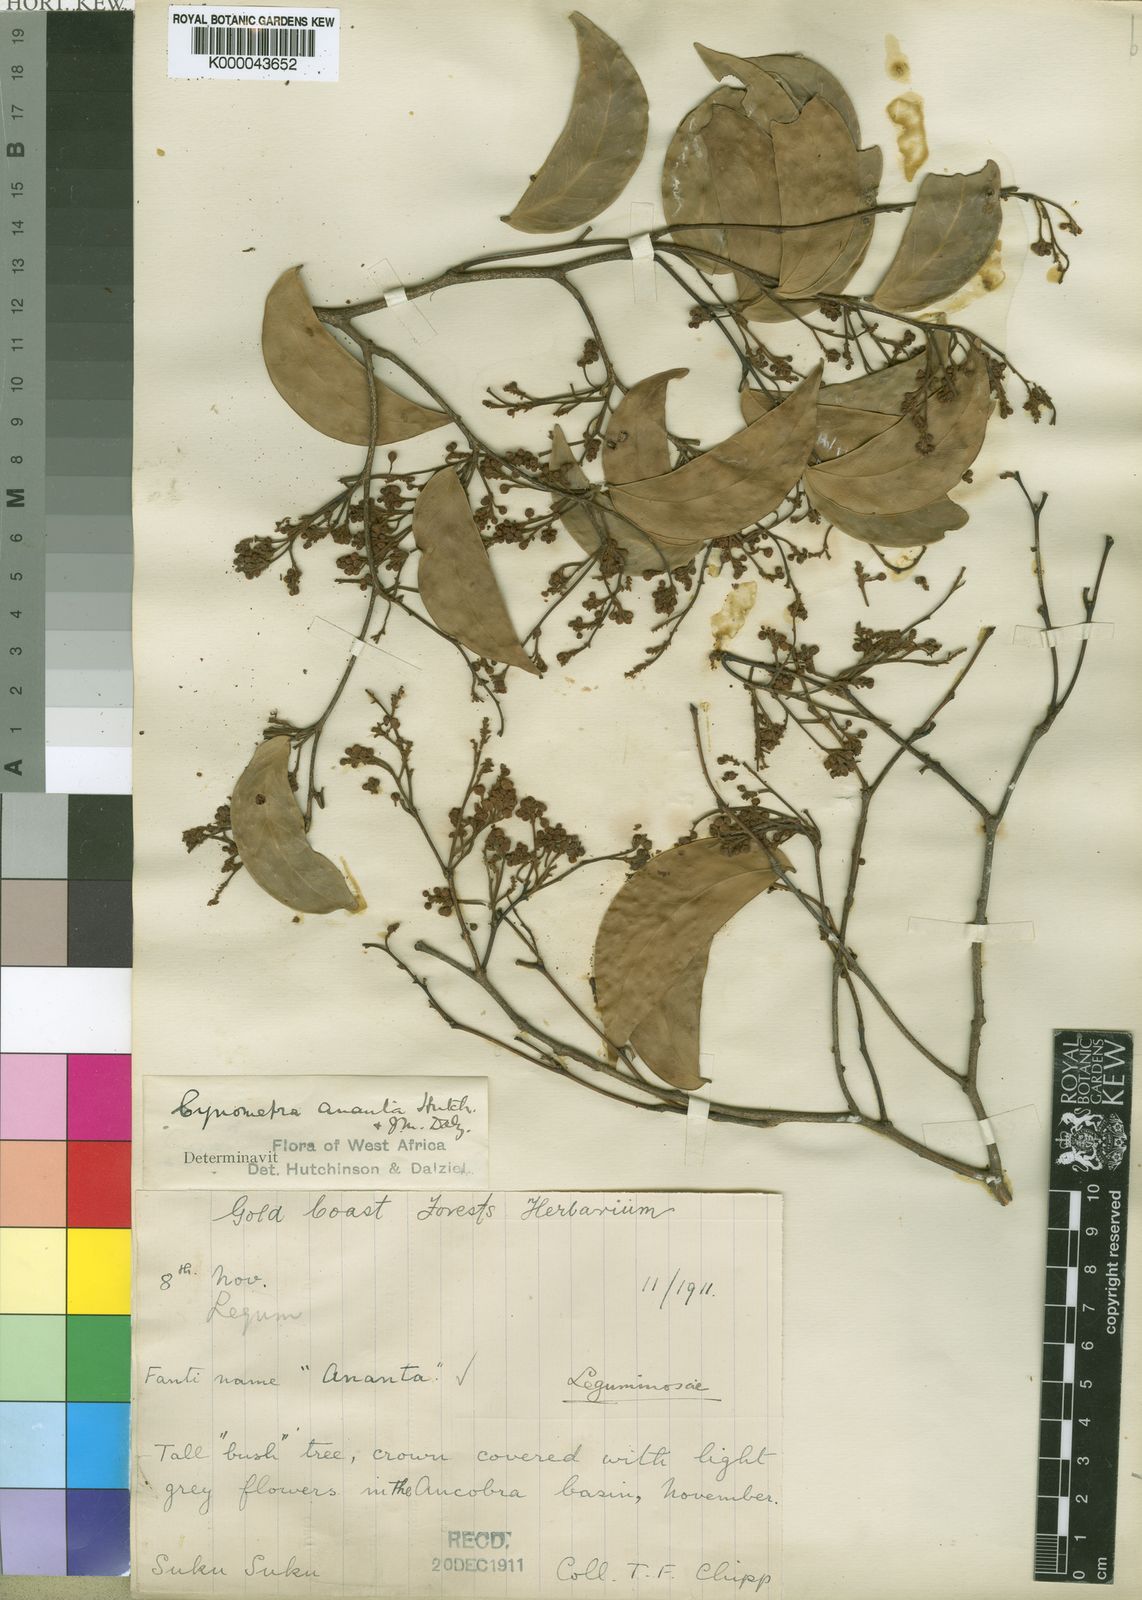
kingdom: Plantae
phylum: Tracheophyta
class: Magnoliopsida
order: Fabales
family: Fabaceae
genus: Cynometra
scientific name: Cynometra ananta
